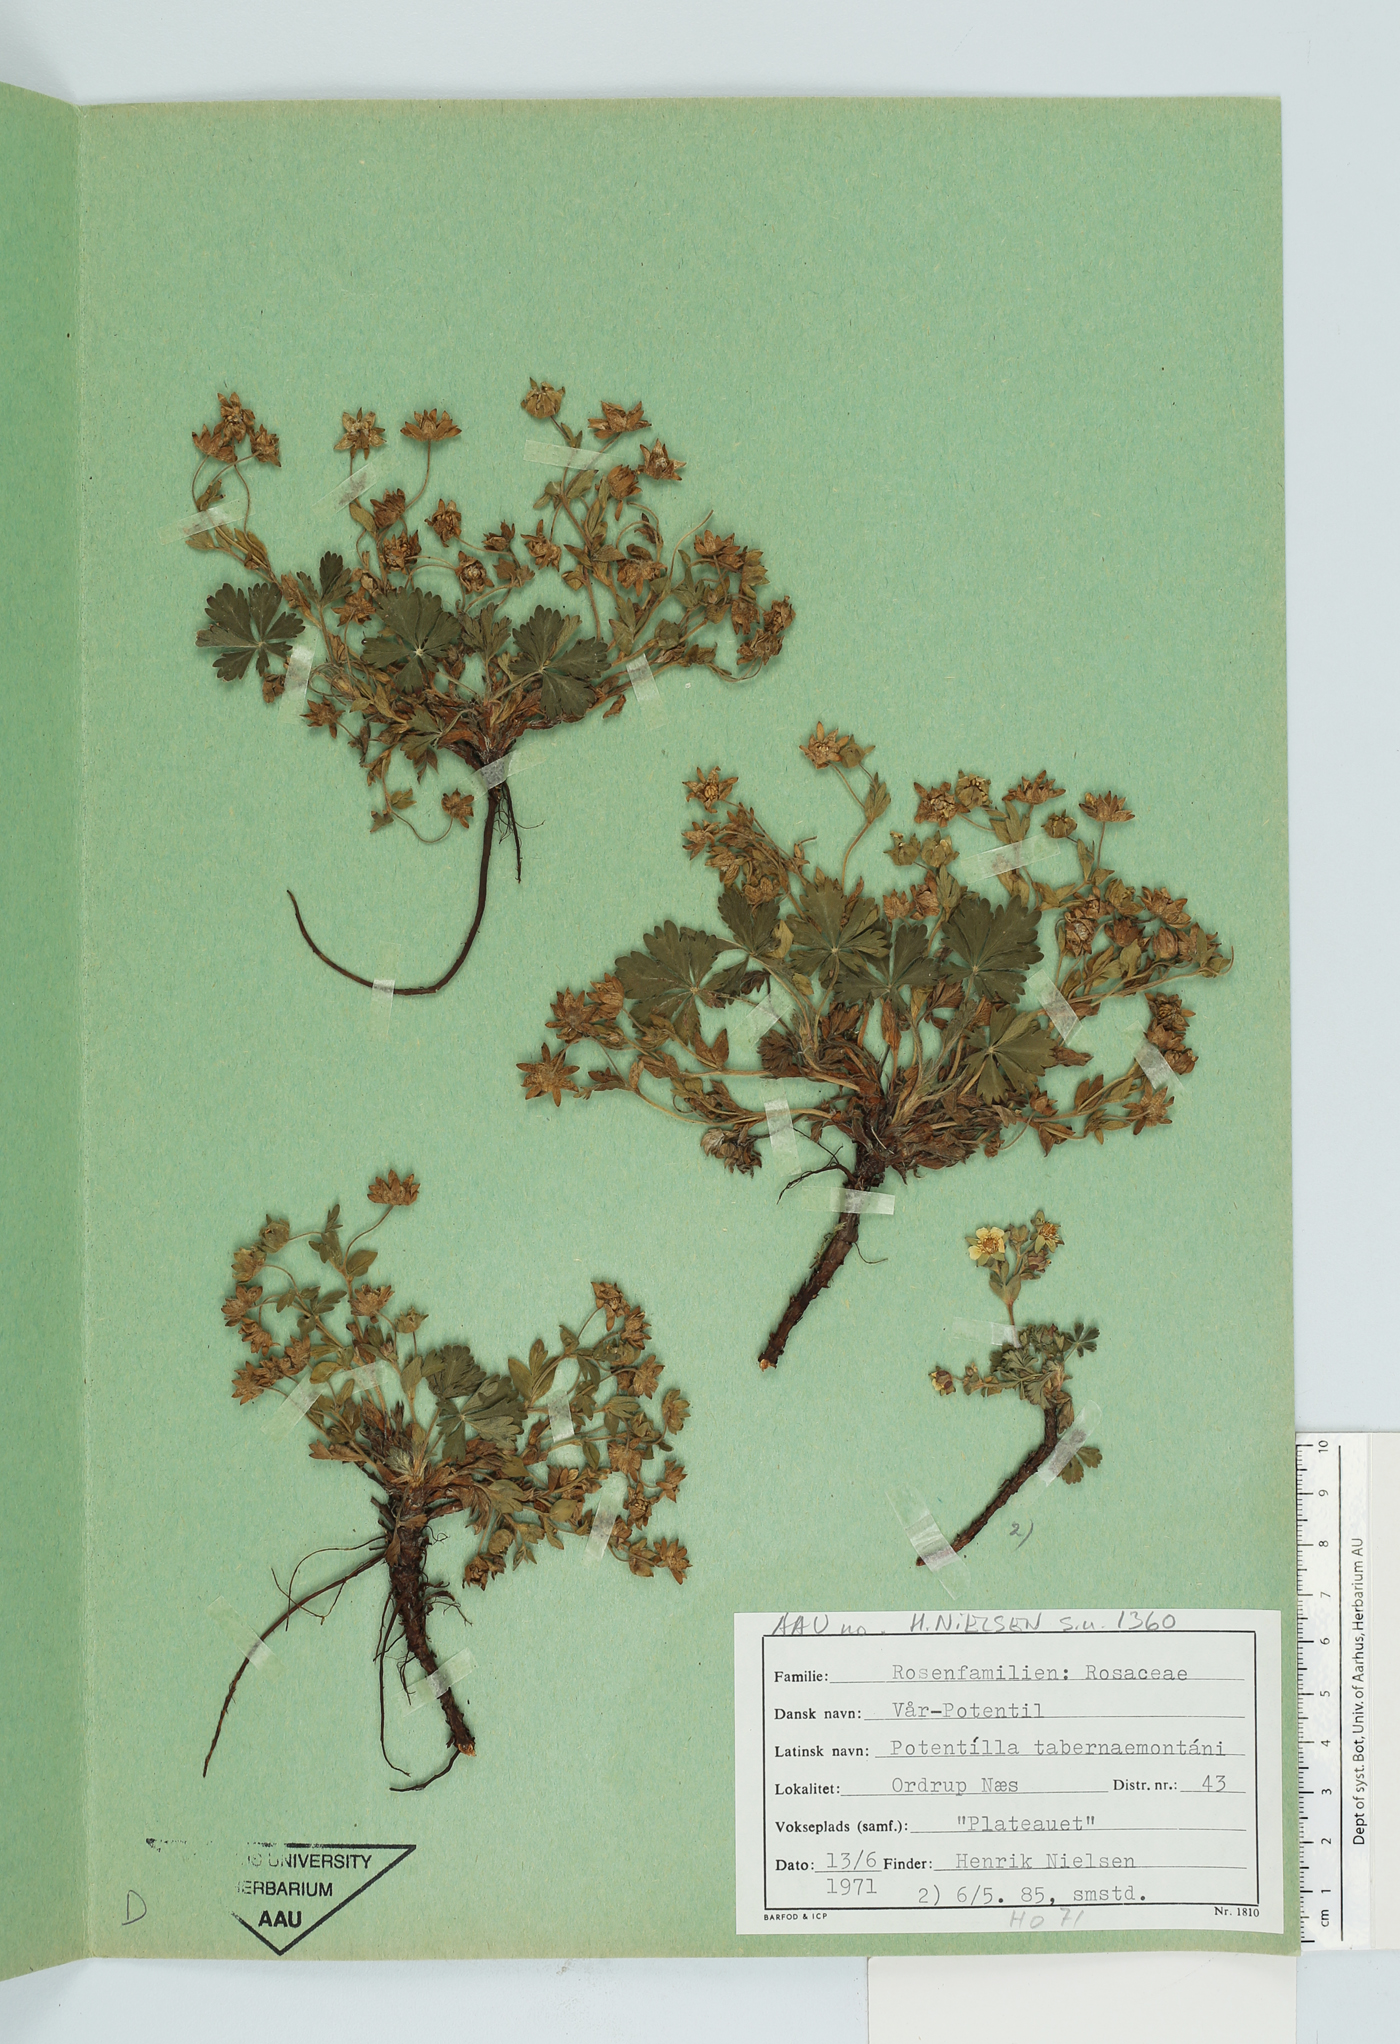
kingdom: Plantae
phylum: Tracheophyta
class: Magnoliopsida
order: Rosales
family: Rosaceae
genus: Potentilla
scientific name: Potentilla verna
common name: Spring cinquefoil
